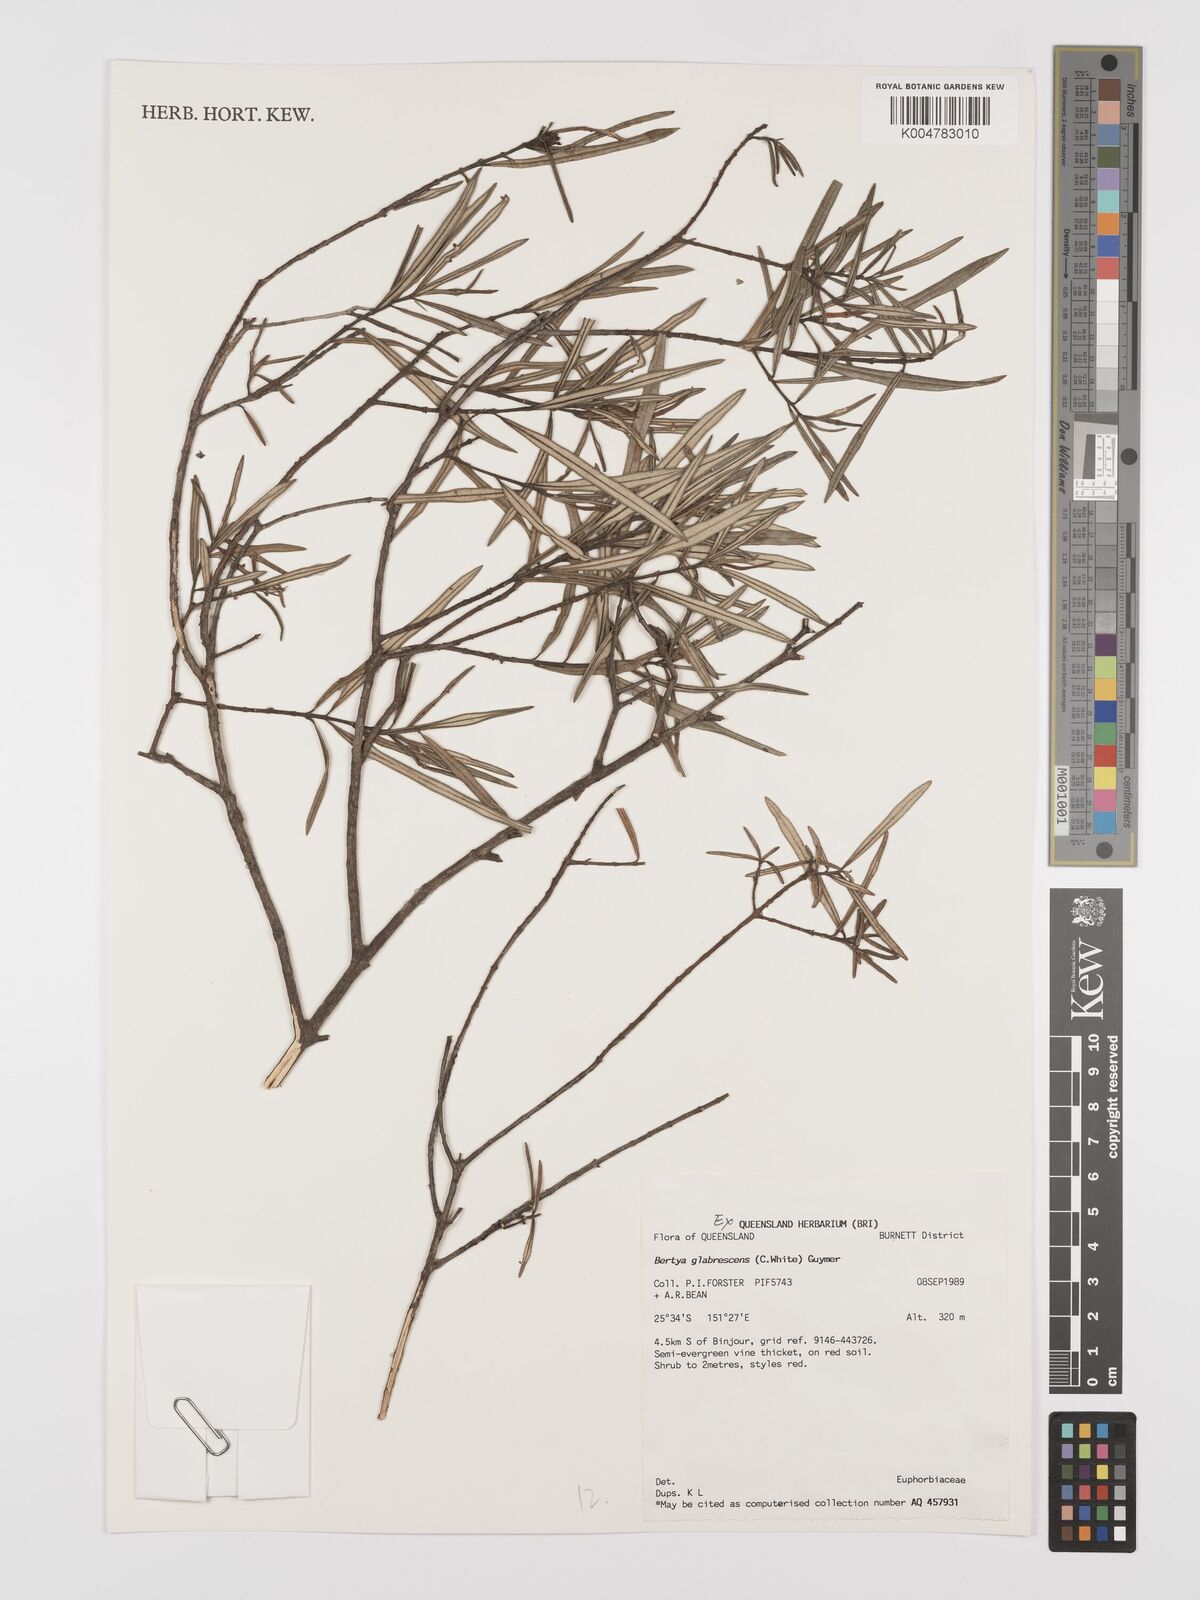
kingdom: Plantae
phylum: Tracheophyta
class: Magnoliopsida
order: Malpighiales
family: Euphorbiaceae
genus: Bertya
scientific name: Bertya pedicellata
